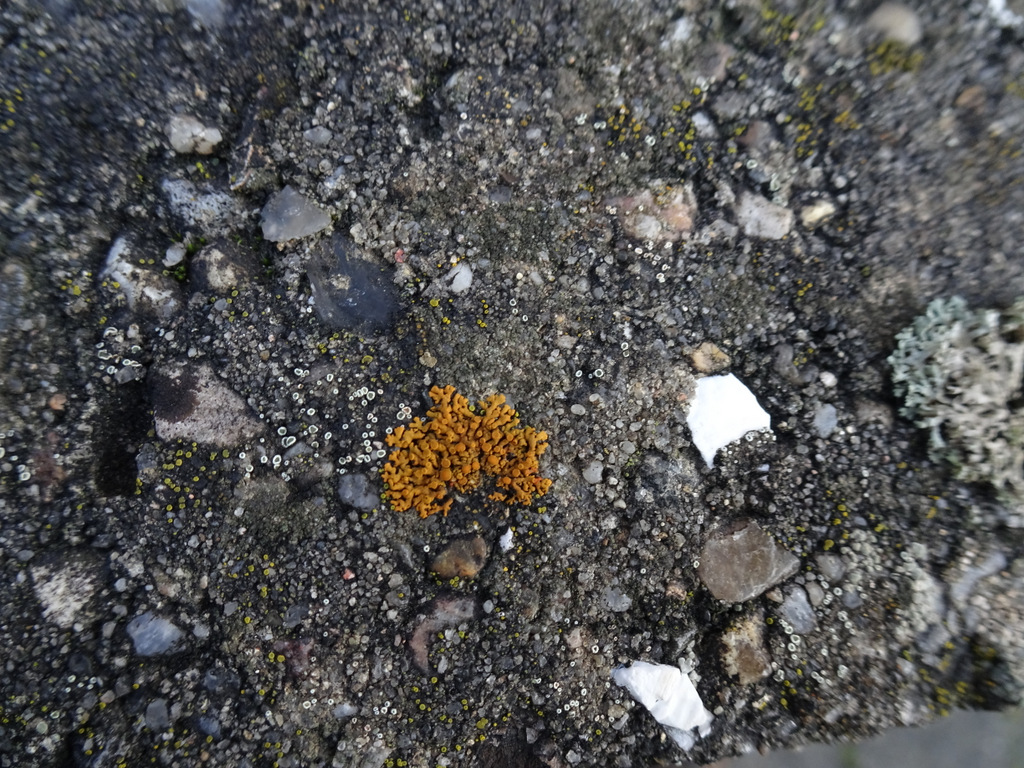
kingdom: Fungi
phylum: Ascomycota
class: Lecanoromycetes
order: Teloschistales
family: Teloschistaceae
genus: Xanthoria
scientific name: Xanthoria elegans
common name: fjeld-væggelav
